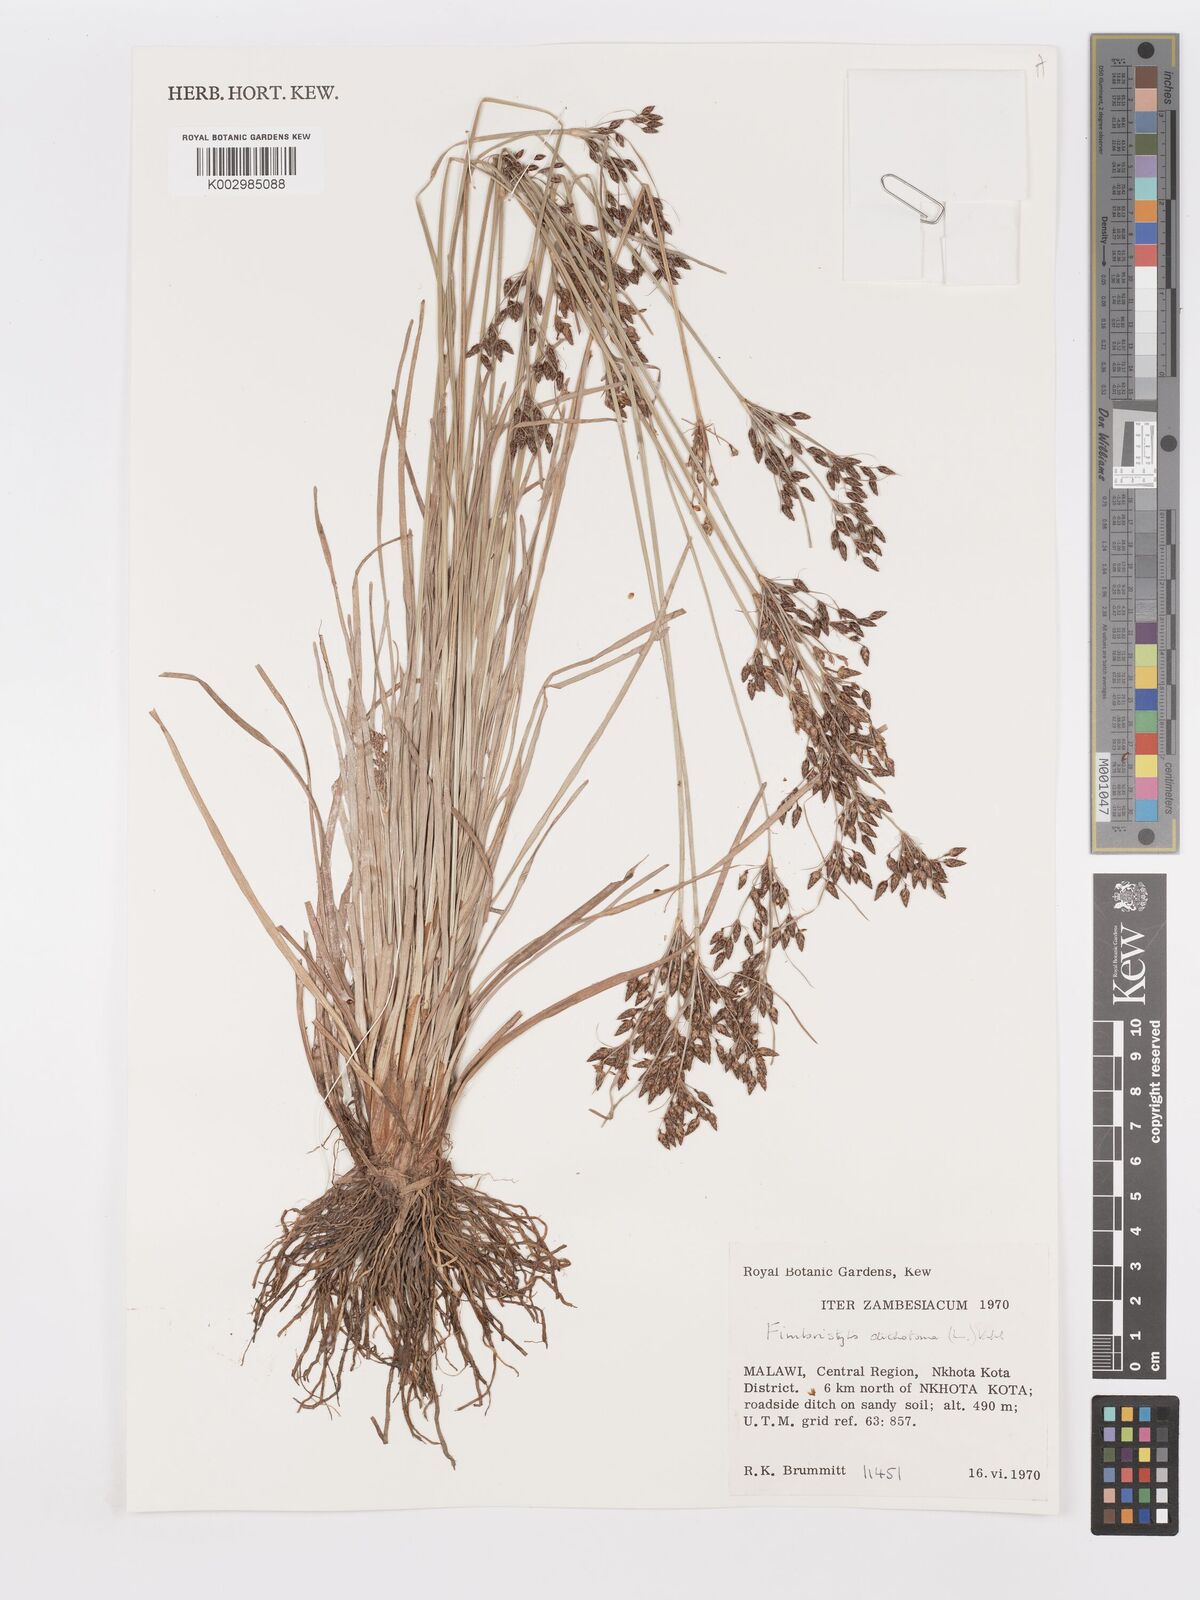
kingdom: Plantae
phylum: Tracheophyta
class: Liliopsida
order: Poales
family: Cyperaceae
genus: Fimbristylis
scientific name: Fimbristylis dichotoma
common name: Forked fimbry
